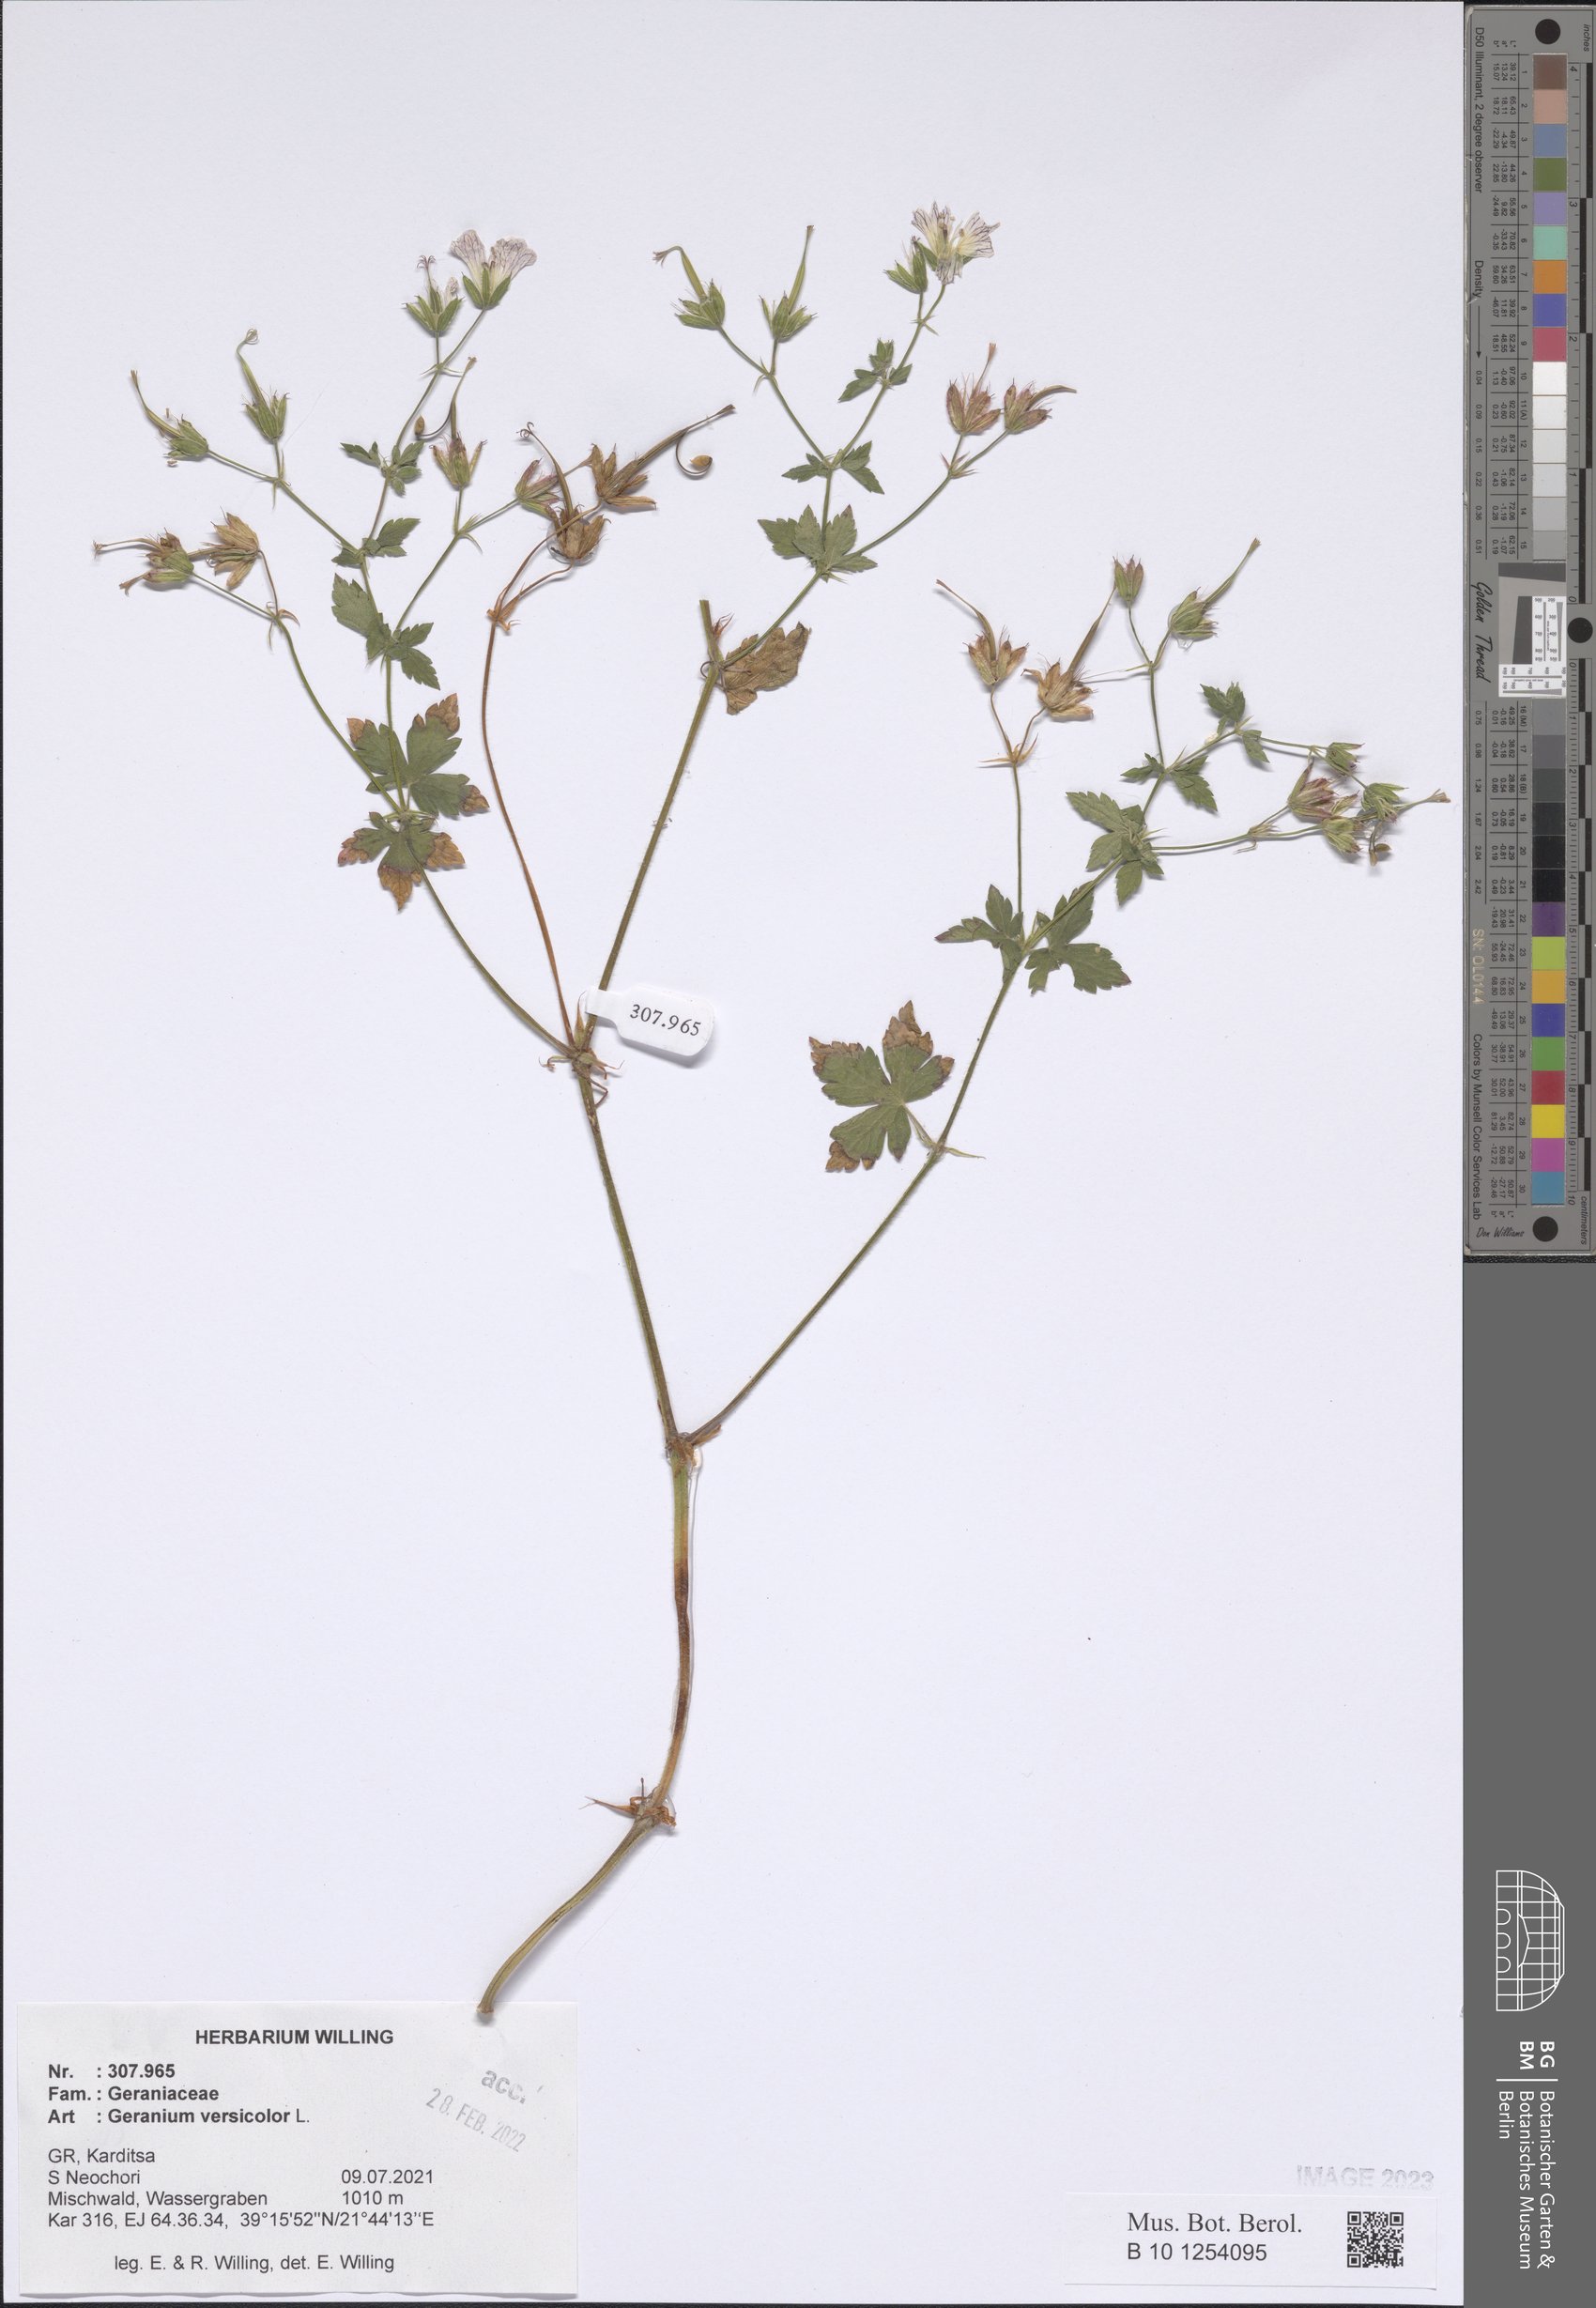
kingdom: Plantae
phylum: Tracheophyta
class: Magnoliopsida
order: Geraniales
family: Geraniaceae
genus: Geranium
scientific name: Geranium versicolor
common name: Pencilled crane's-bill
